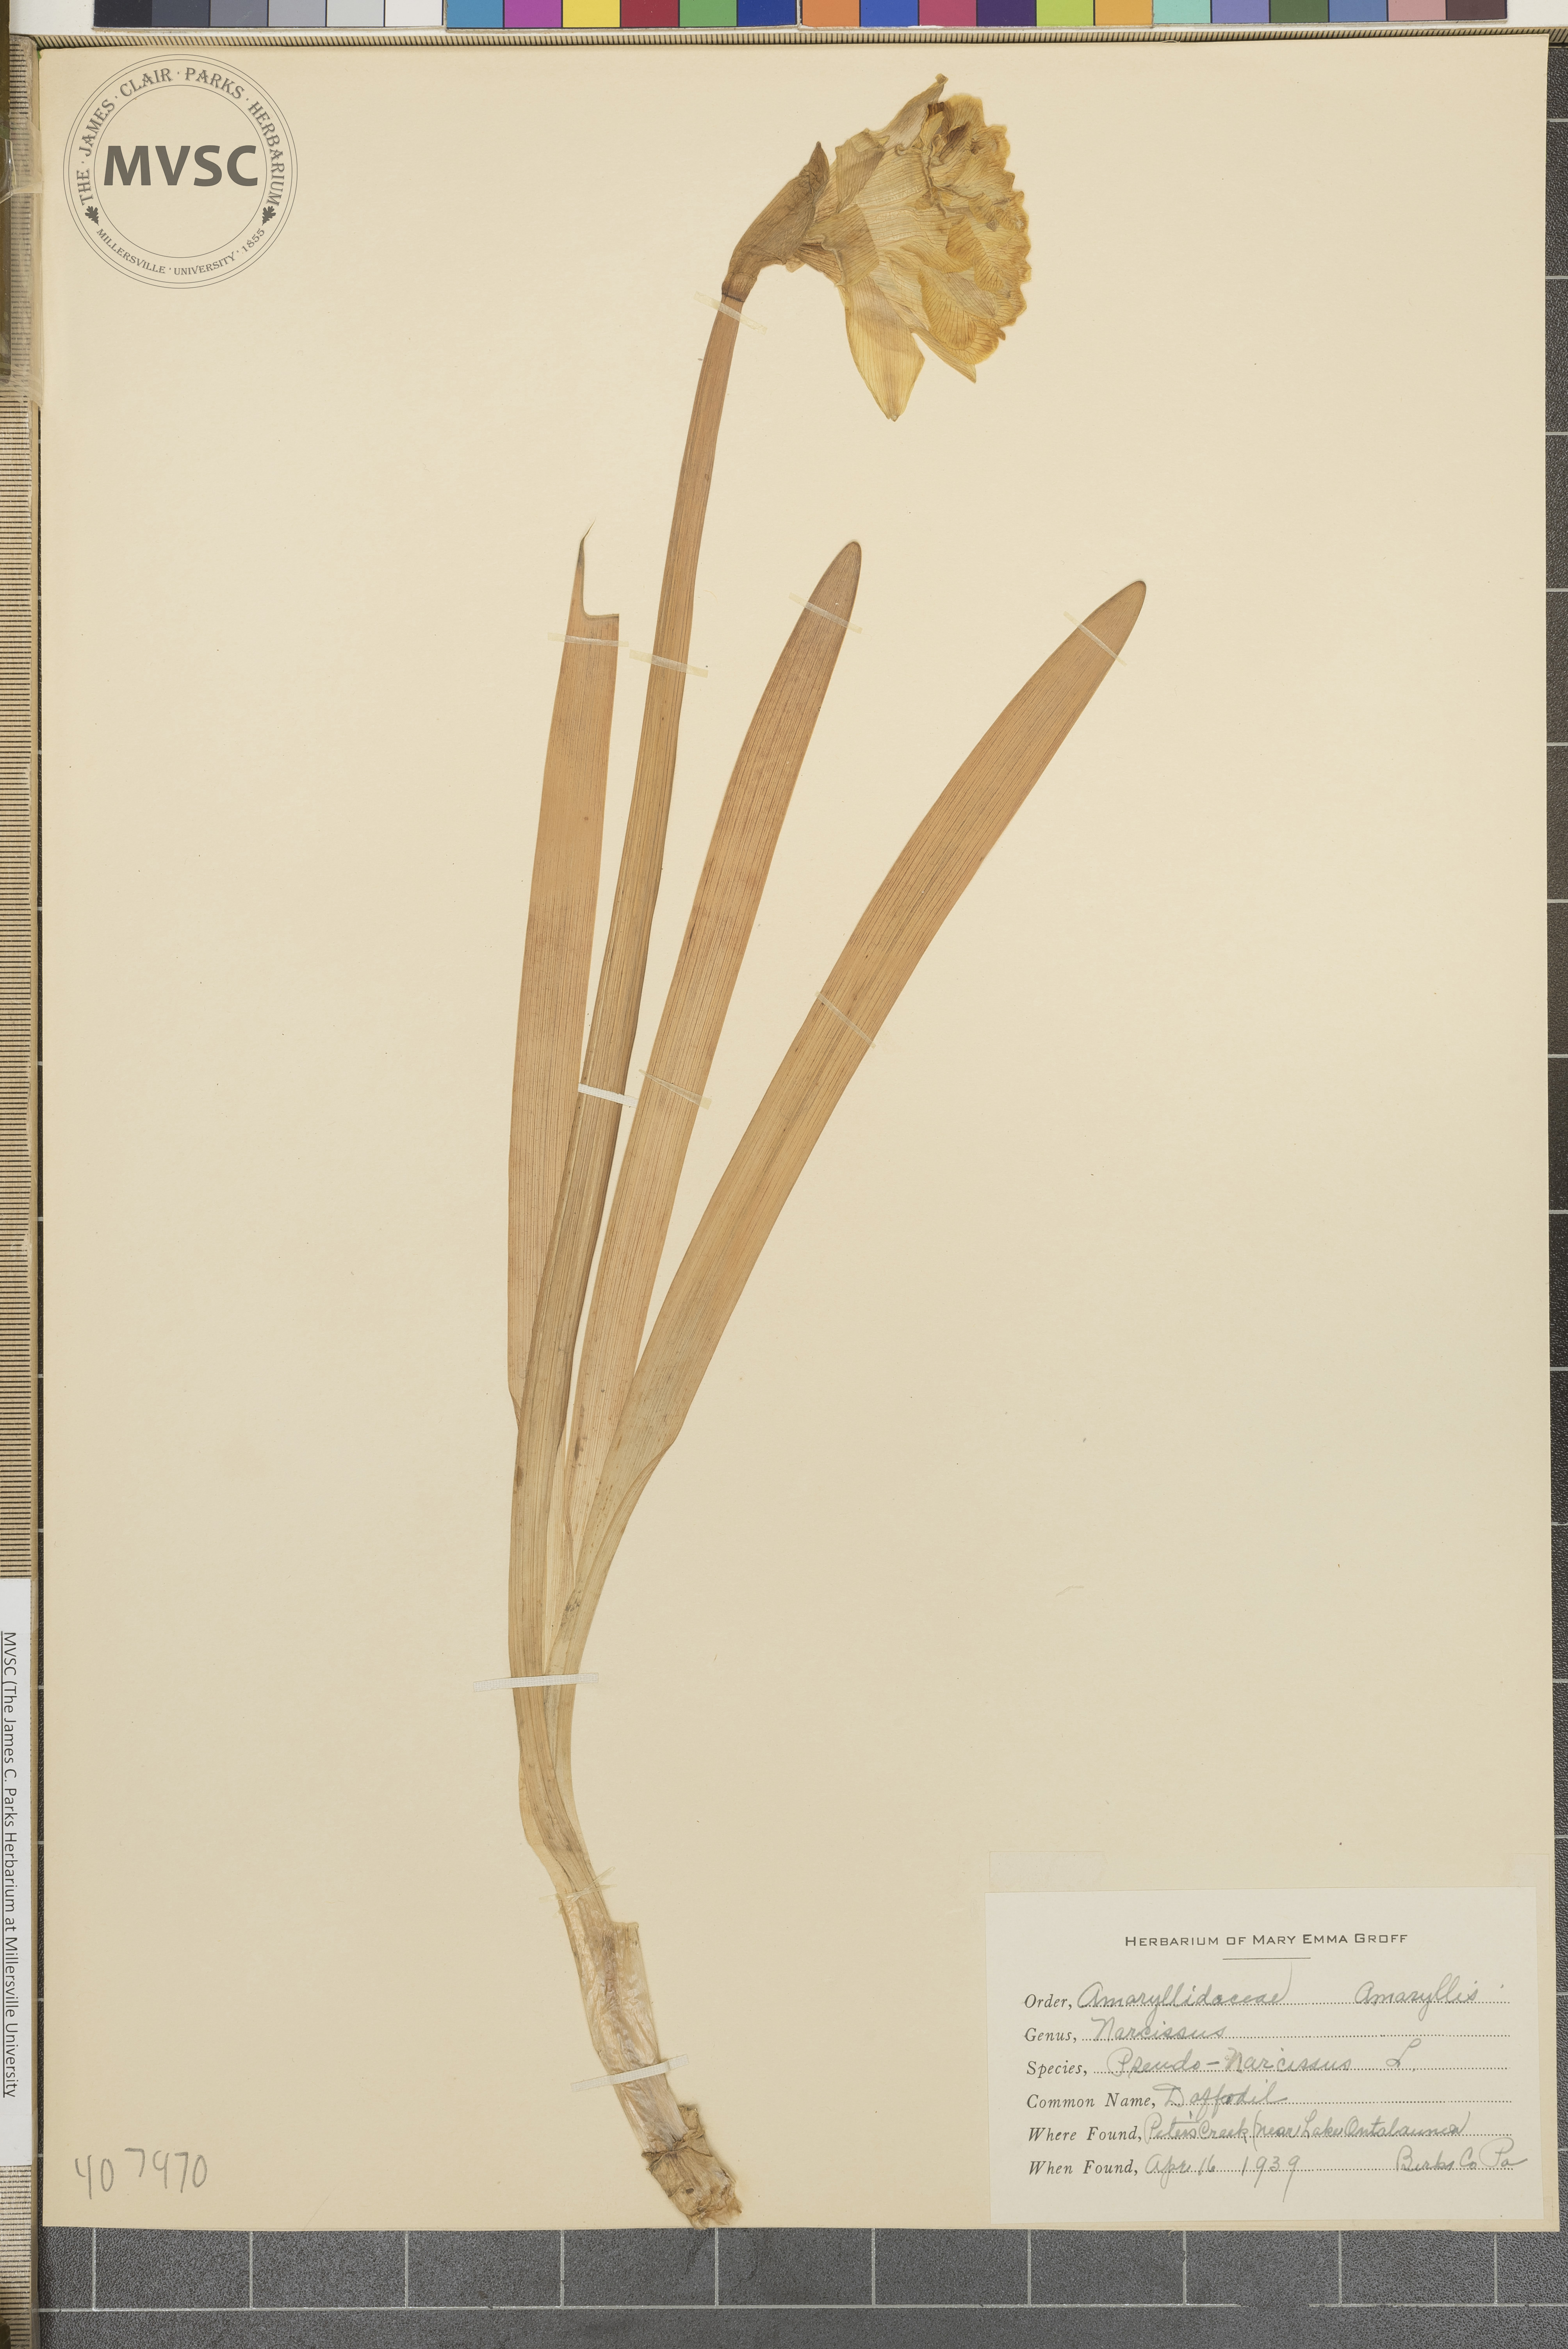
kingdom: Plantae
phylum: Tracheophyta
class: Liliopsida
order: Asparagales
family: Amaryllidaceae
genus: Narcissus
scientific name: Narcissus pseudonarcissus
